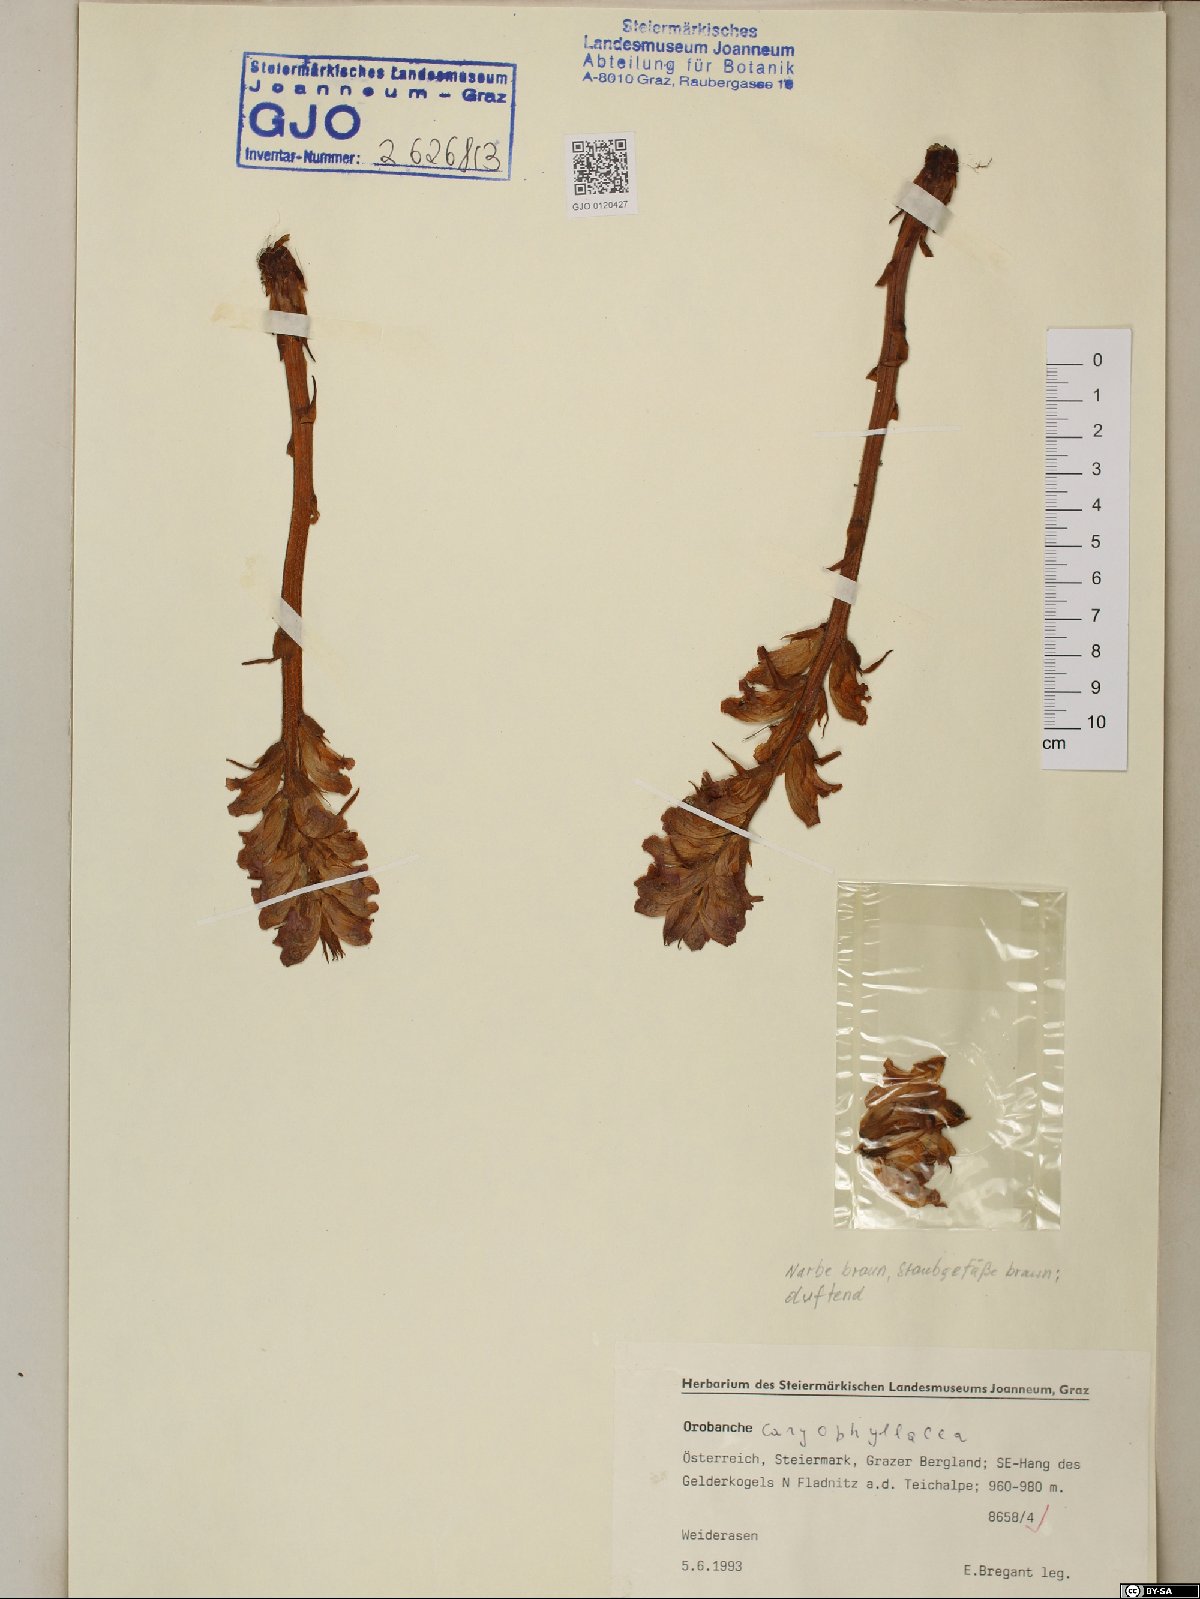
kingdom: Plantae
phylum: Tracheophyta
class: Magnoliopsida
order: Lamiales
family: Orobanchaceae
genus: Orobanche
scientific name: Orobanche caryophyllacea
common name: Bedstraw broomrape
